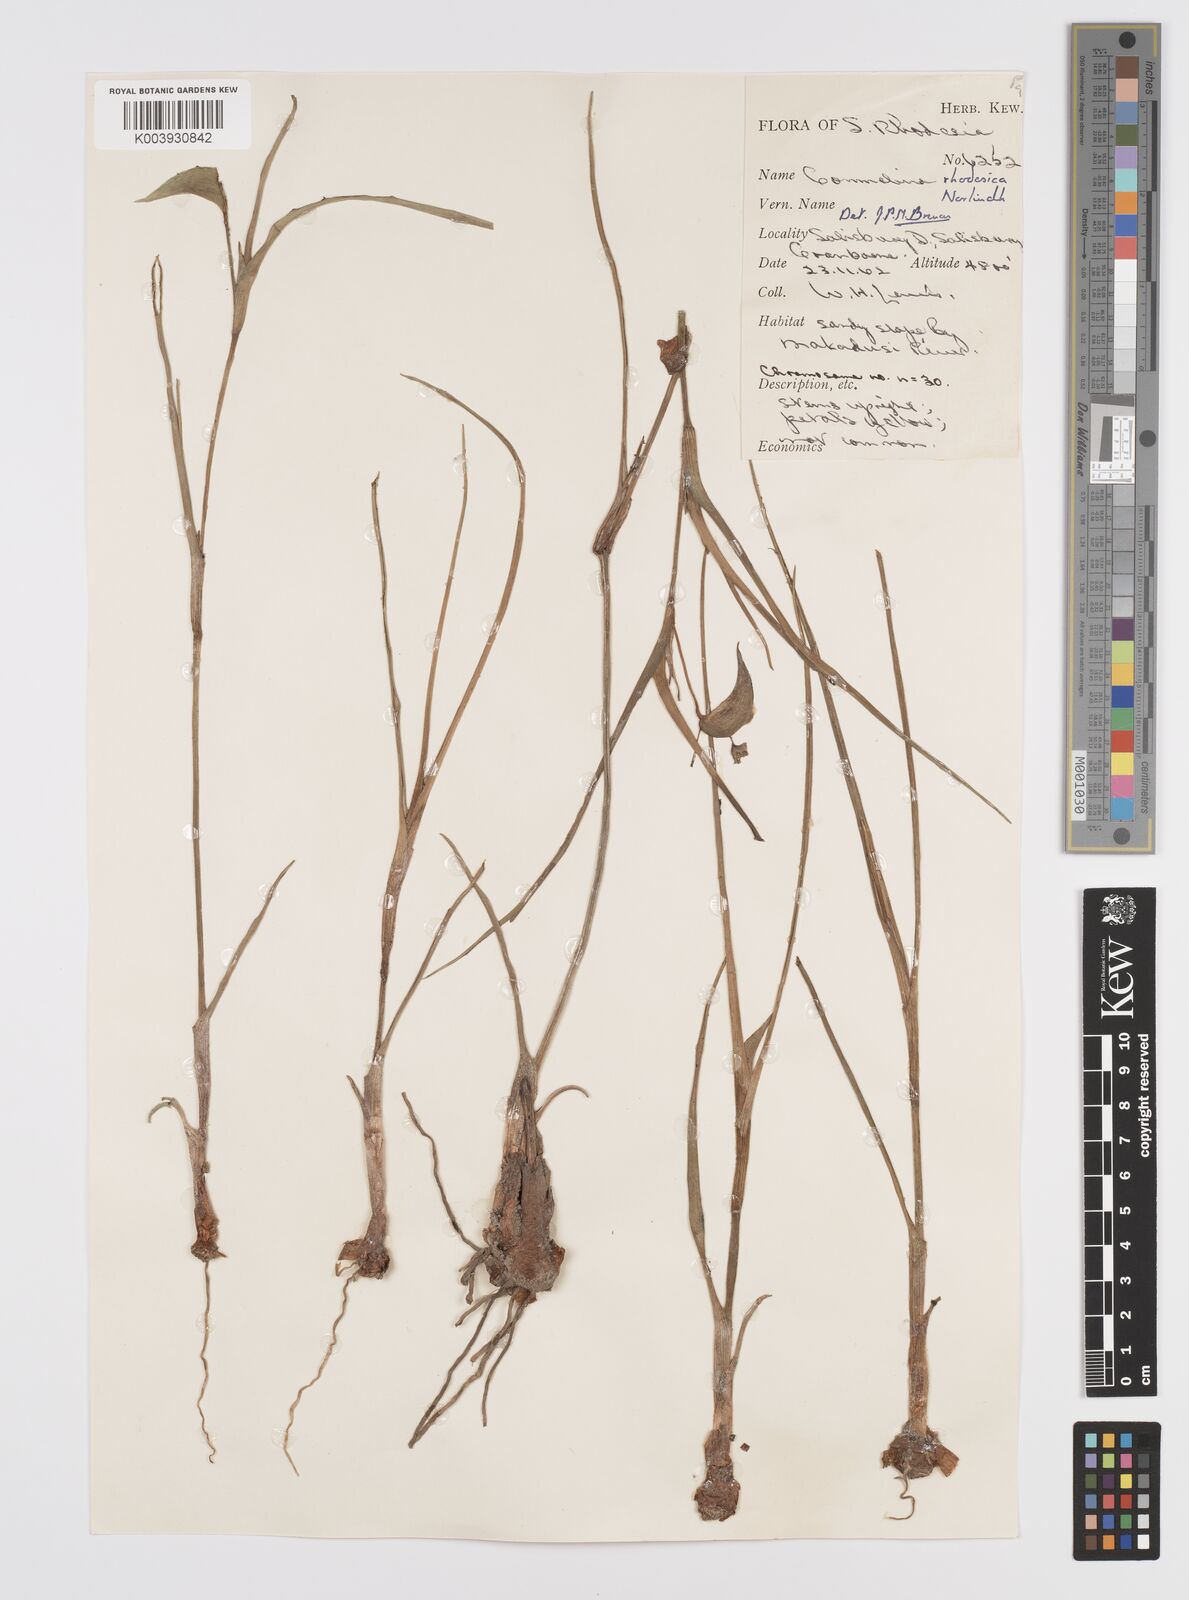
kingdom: Plantae
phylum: Tracheophyta
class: Liliopsida
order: Commelinales
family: Commelinaceae
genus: Commelina
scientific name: Commelina welwitschii
